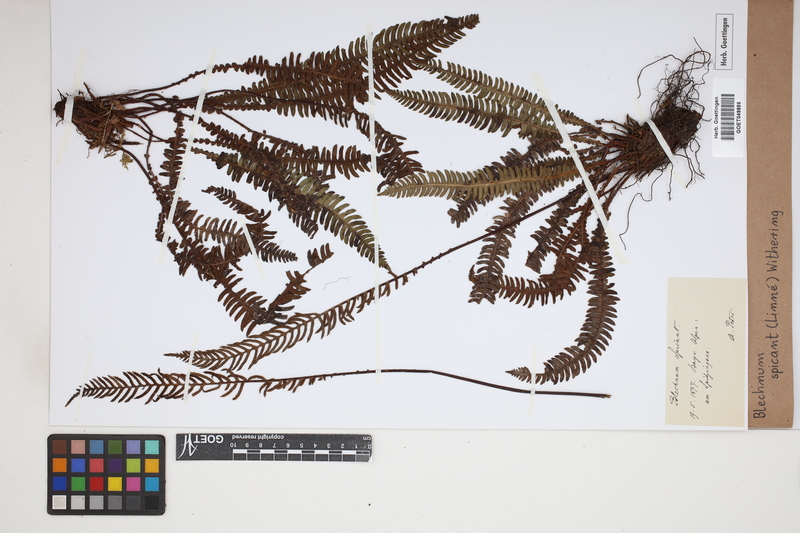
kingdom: Plantae
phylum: Tracheophyta
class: Polypodiopsida
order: Polypodiales
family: Blechnaceae
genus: Struthiopteris
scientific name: Struthiopteris spicant
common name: Deer fern
